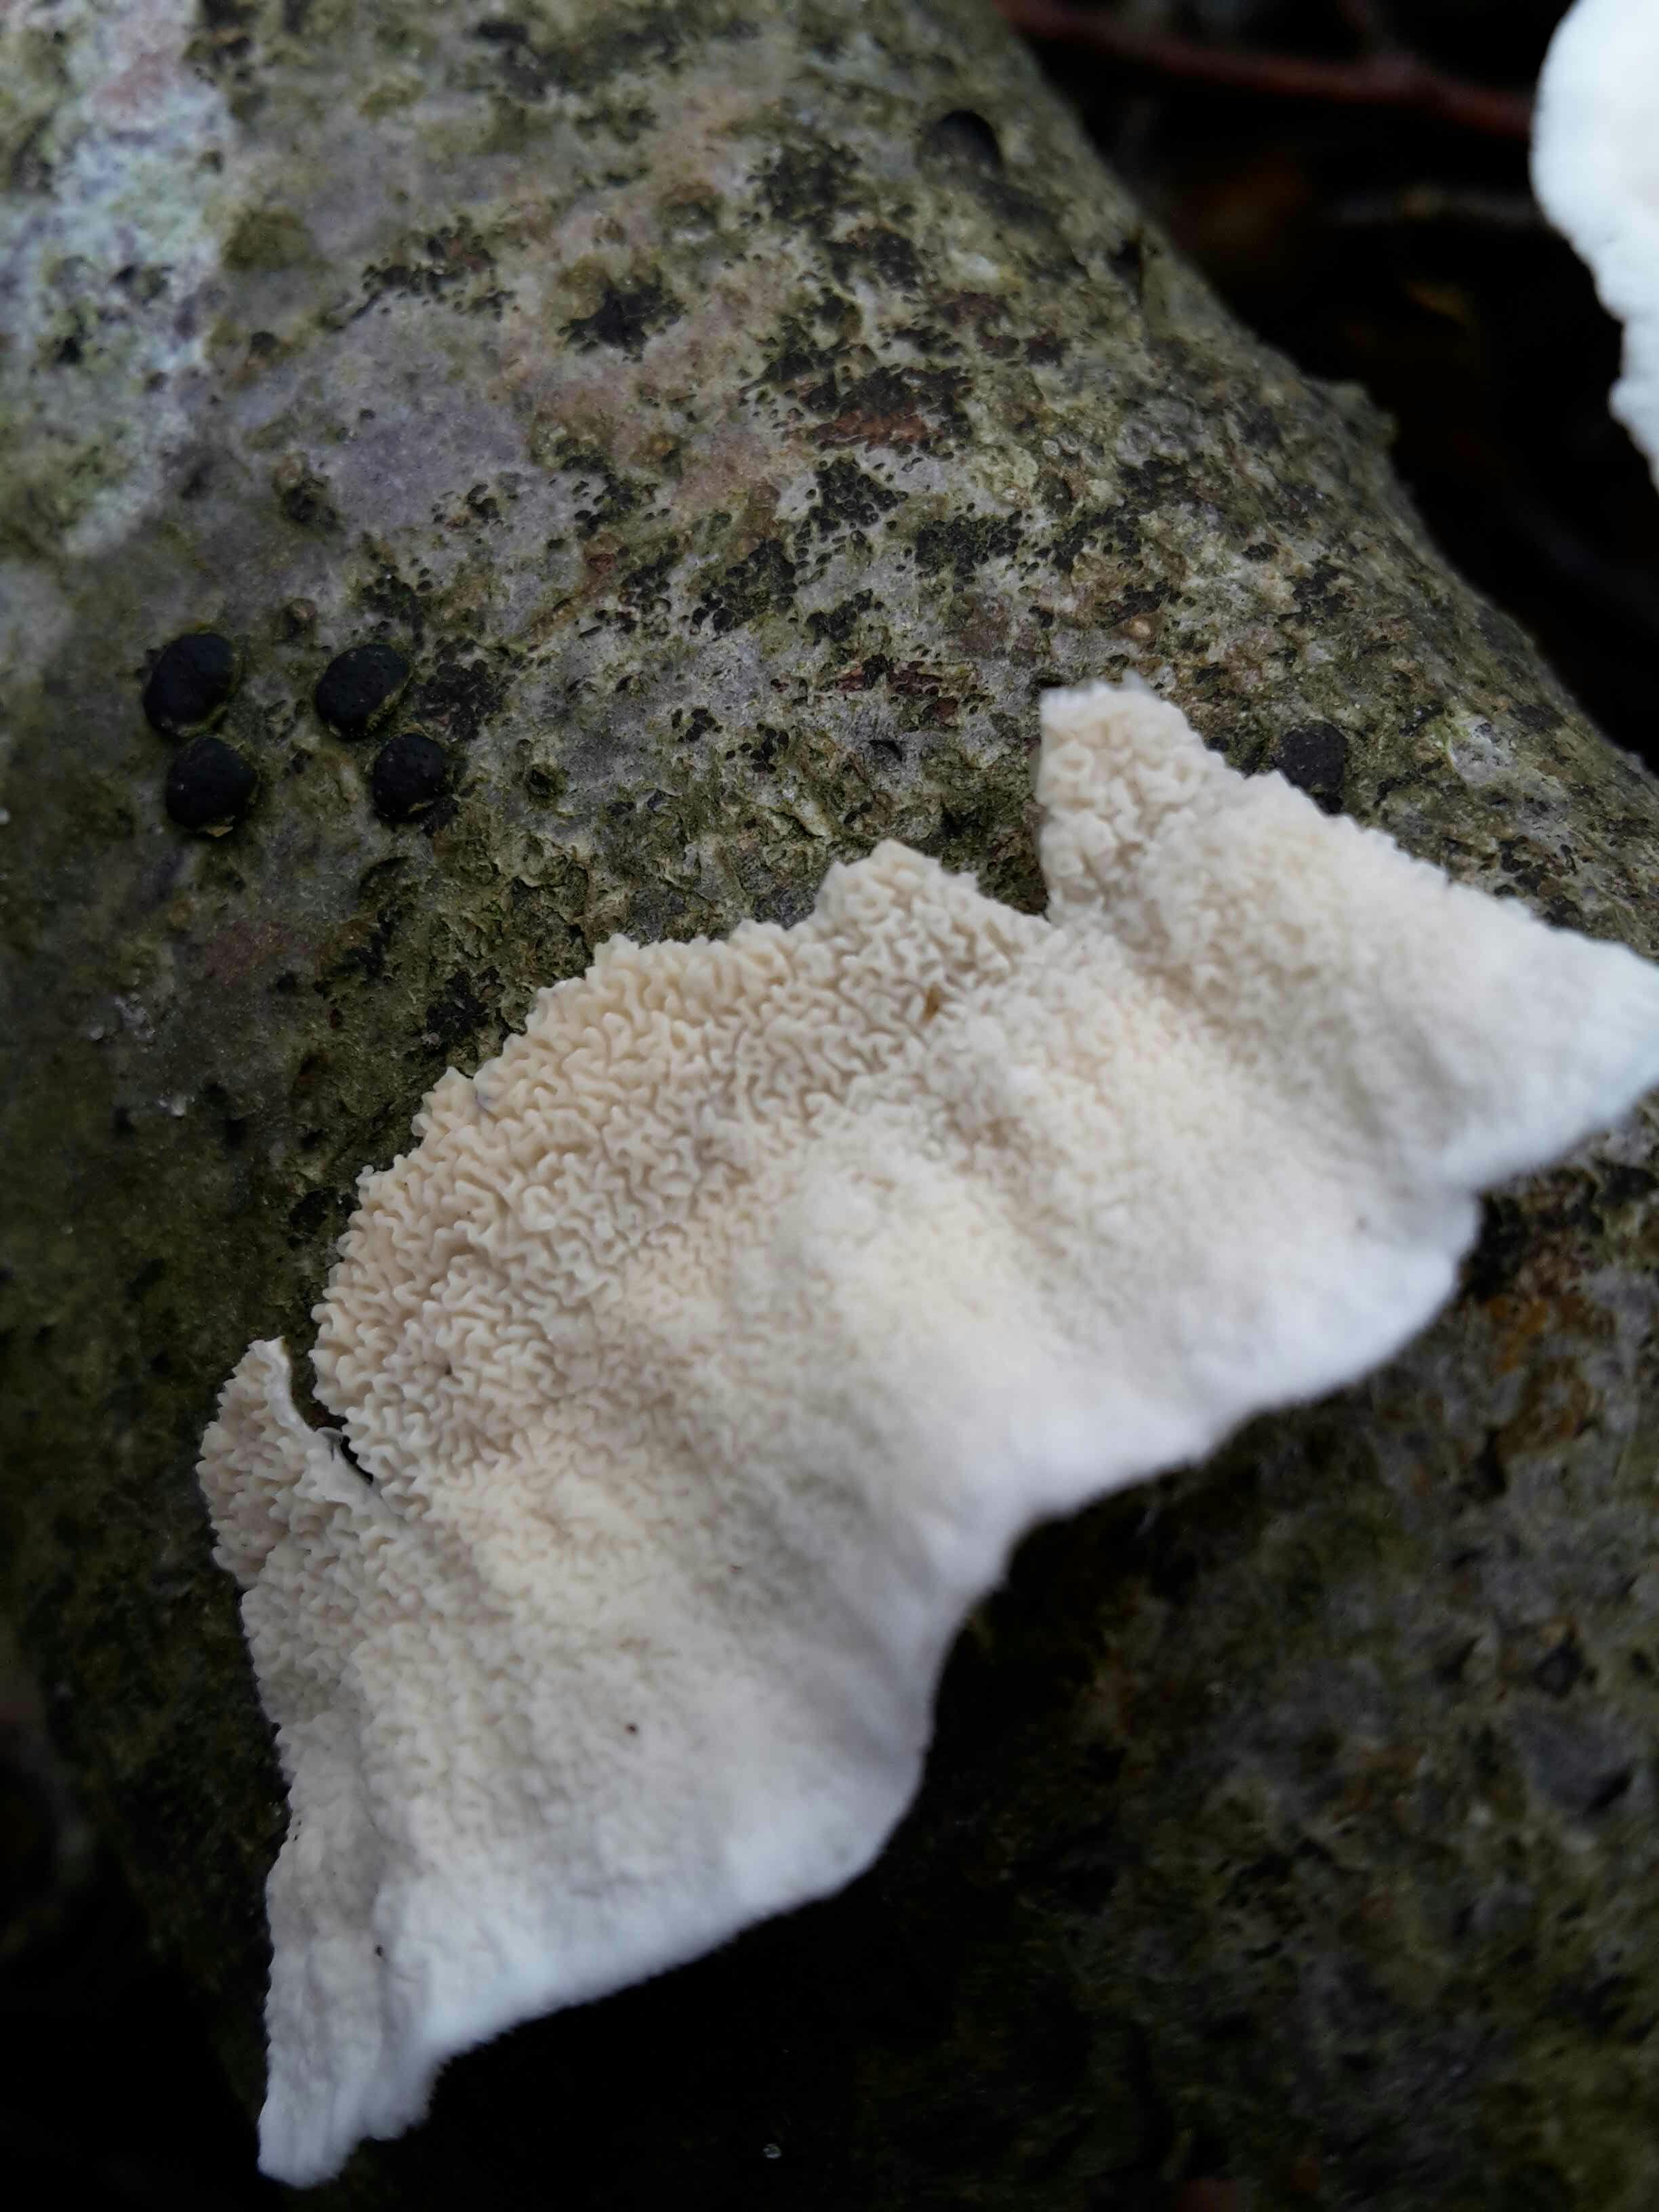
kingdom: Fungi
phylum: Basidiomycota
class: Agaricomycetes
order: Polyporales
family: Irpicaceae
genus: Byssomerulius
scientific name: Byssomerulius corium
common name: læder-åresvamp
